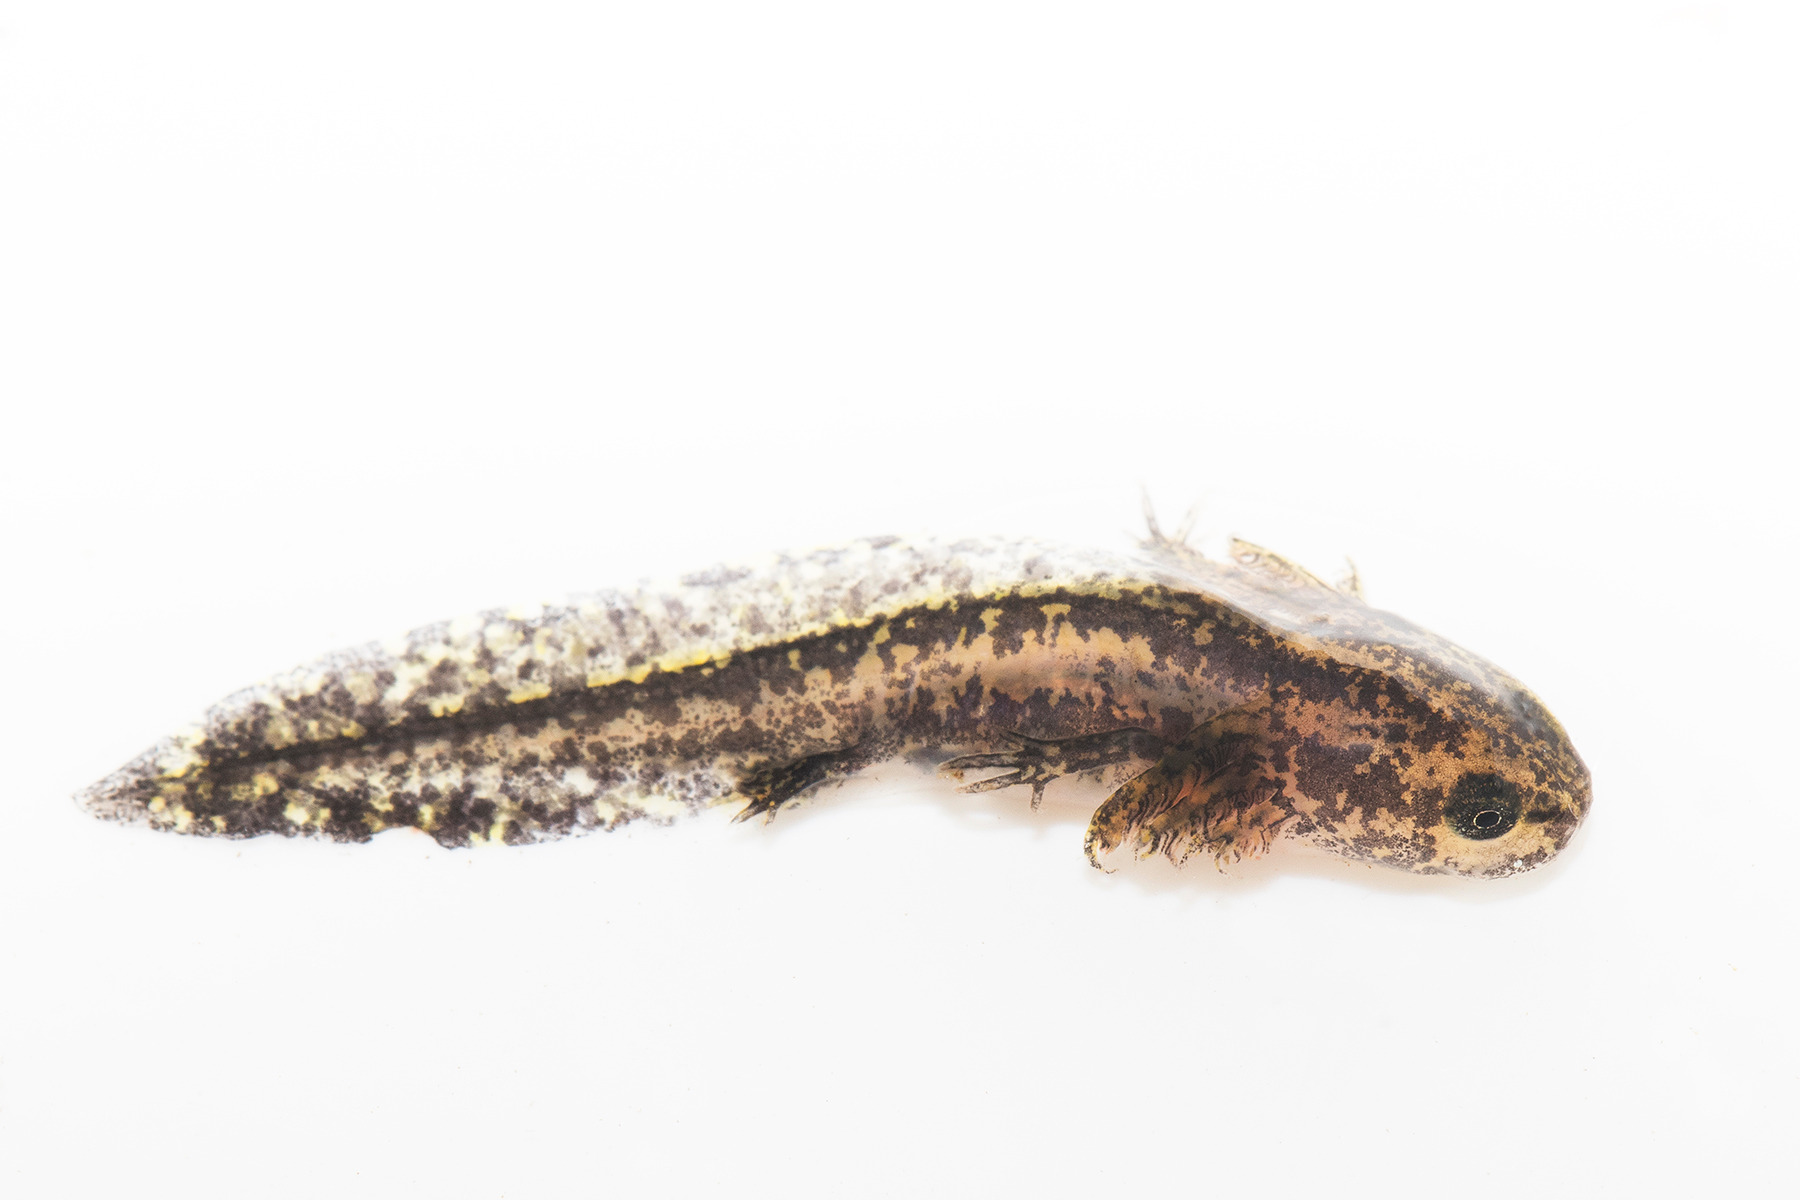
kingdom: Animalia
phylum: Chordata
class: Amphibia
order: Caudata
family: Salamandridae
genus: Ichthyosaura
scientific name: Ichthyosaura alpestris
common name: Bjergsalamander
